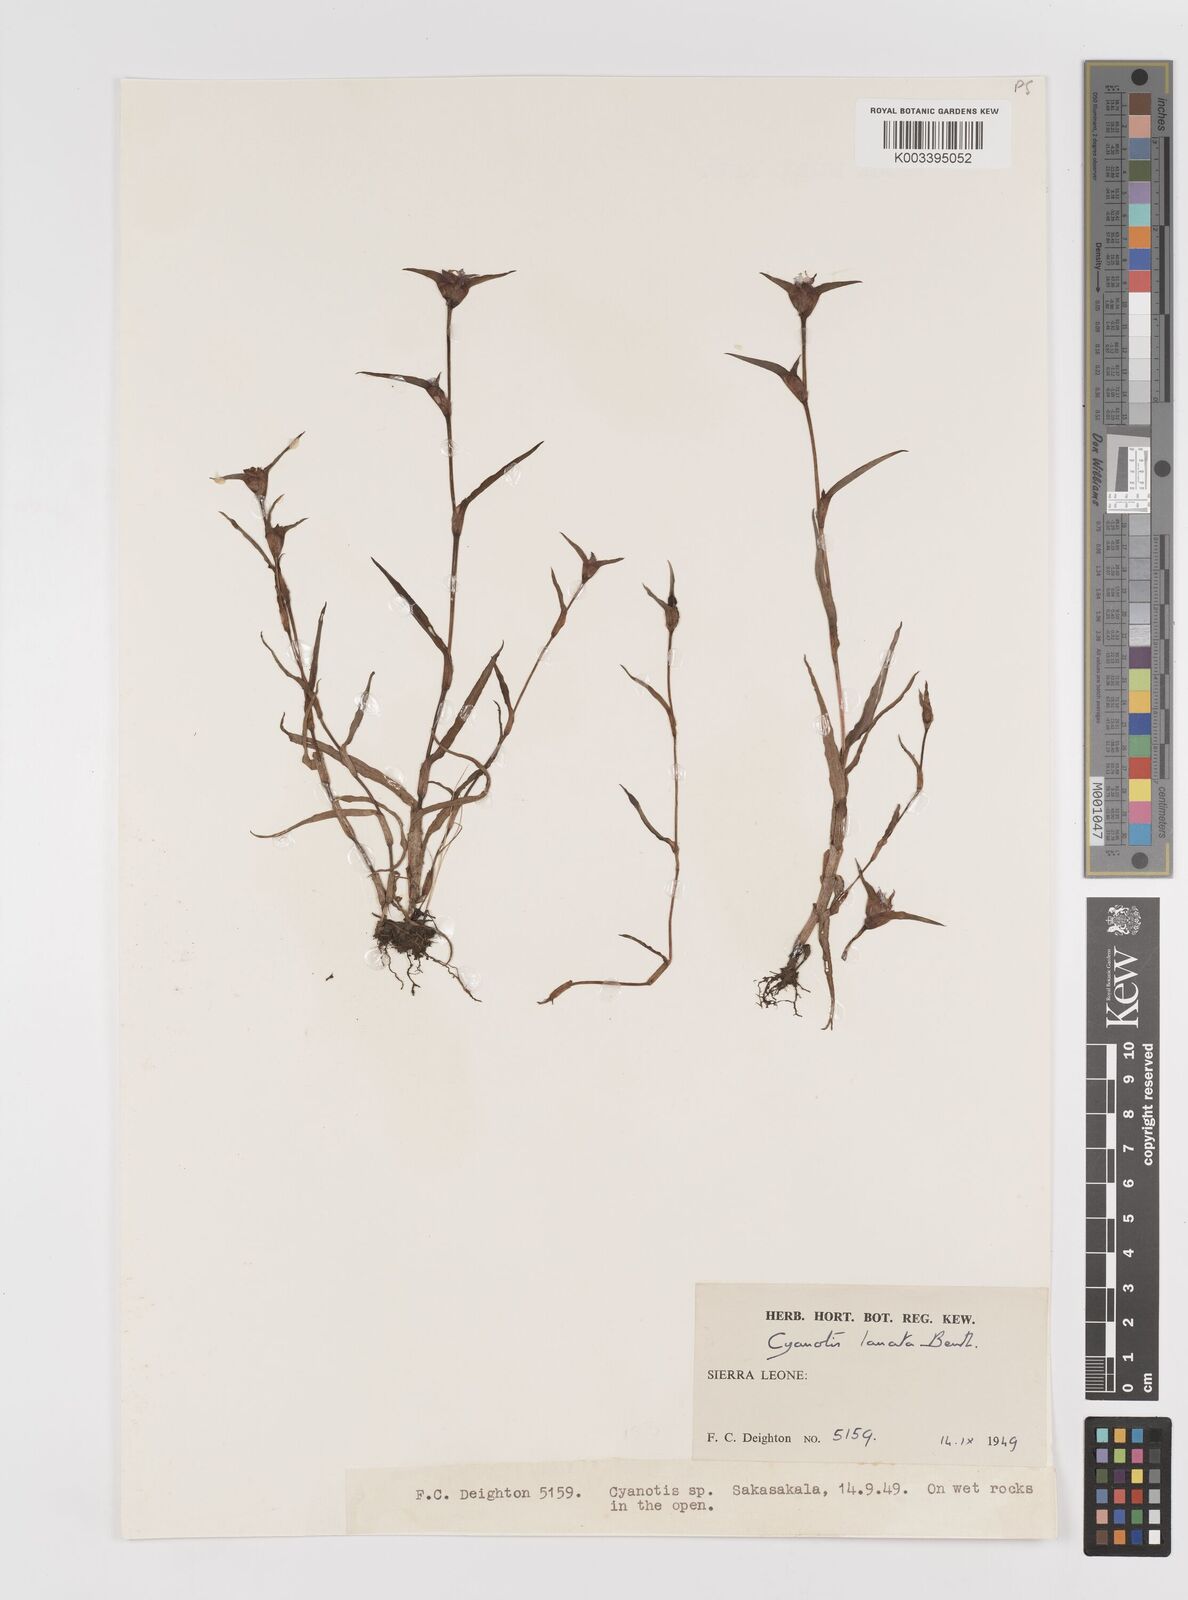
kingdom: Plantae
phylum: Tracheophyta
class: Liliopsida
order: Commelinales
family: Commelinaceae
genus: Cyanotis
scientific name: Cyanotis lanata
